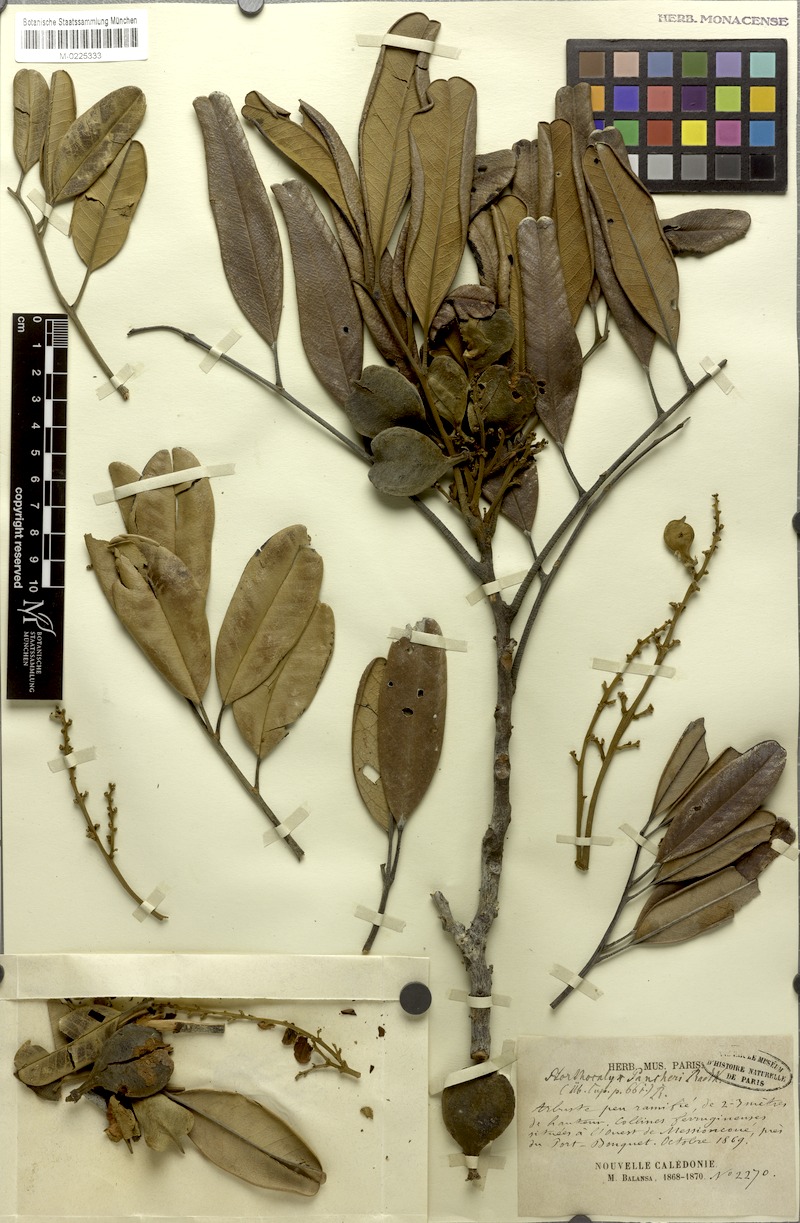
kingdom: Plantae
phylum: Tracheophyta
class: Magnoliopsida
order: Sapindales
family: Sapindaceae
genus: Storthocalyx
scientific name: Storthocalyx pancheri
